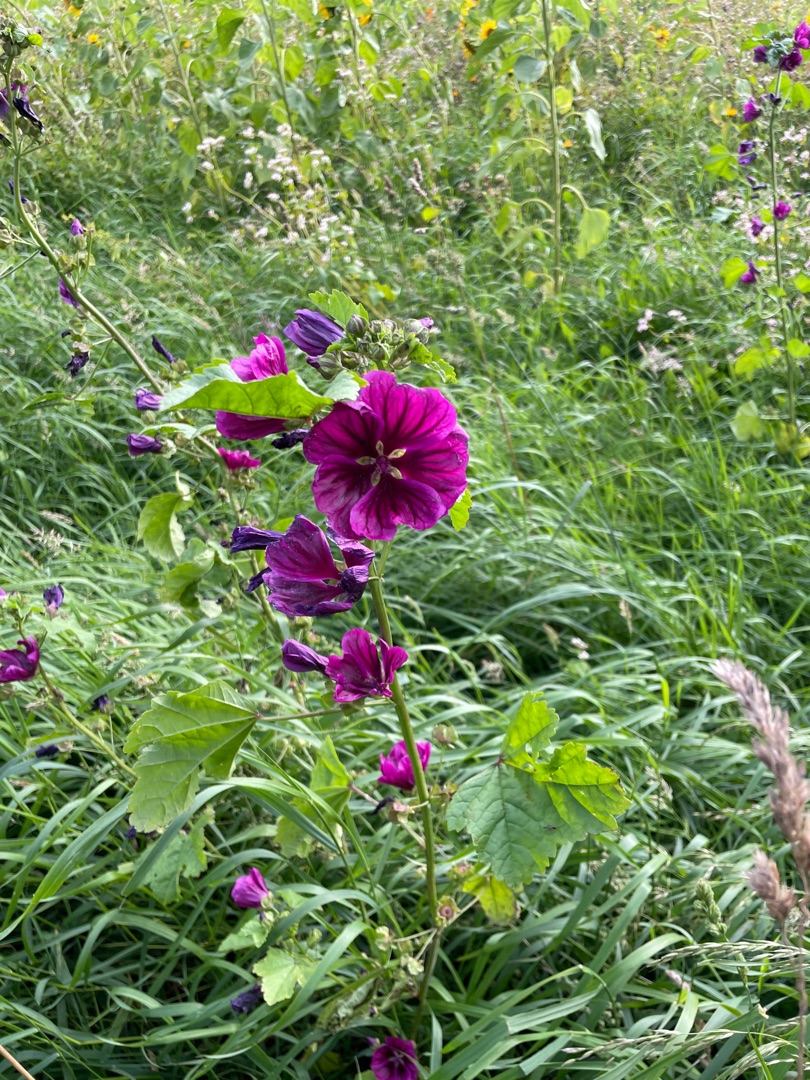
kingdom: Plantae
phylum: Tracheophyta
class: Magnoliopsida
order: Malvales
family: Malvaceae
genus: Malva
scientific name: Malva sylvestris
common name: Stor katost
